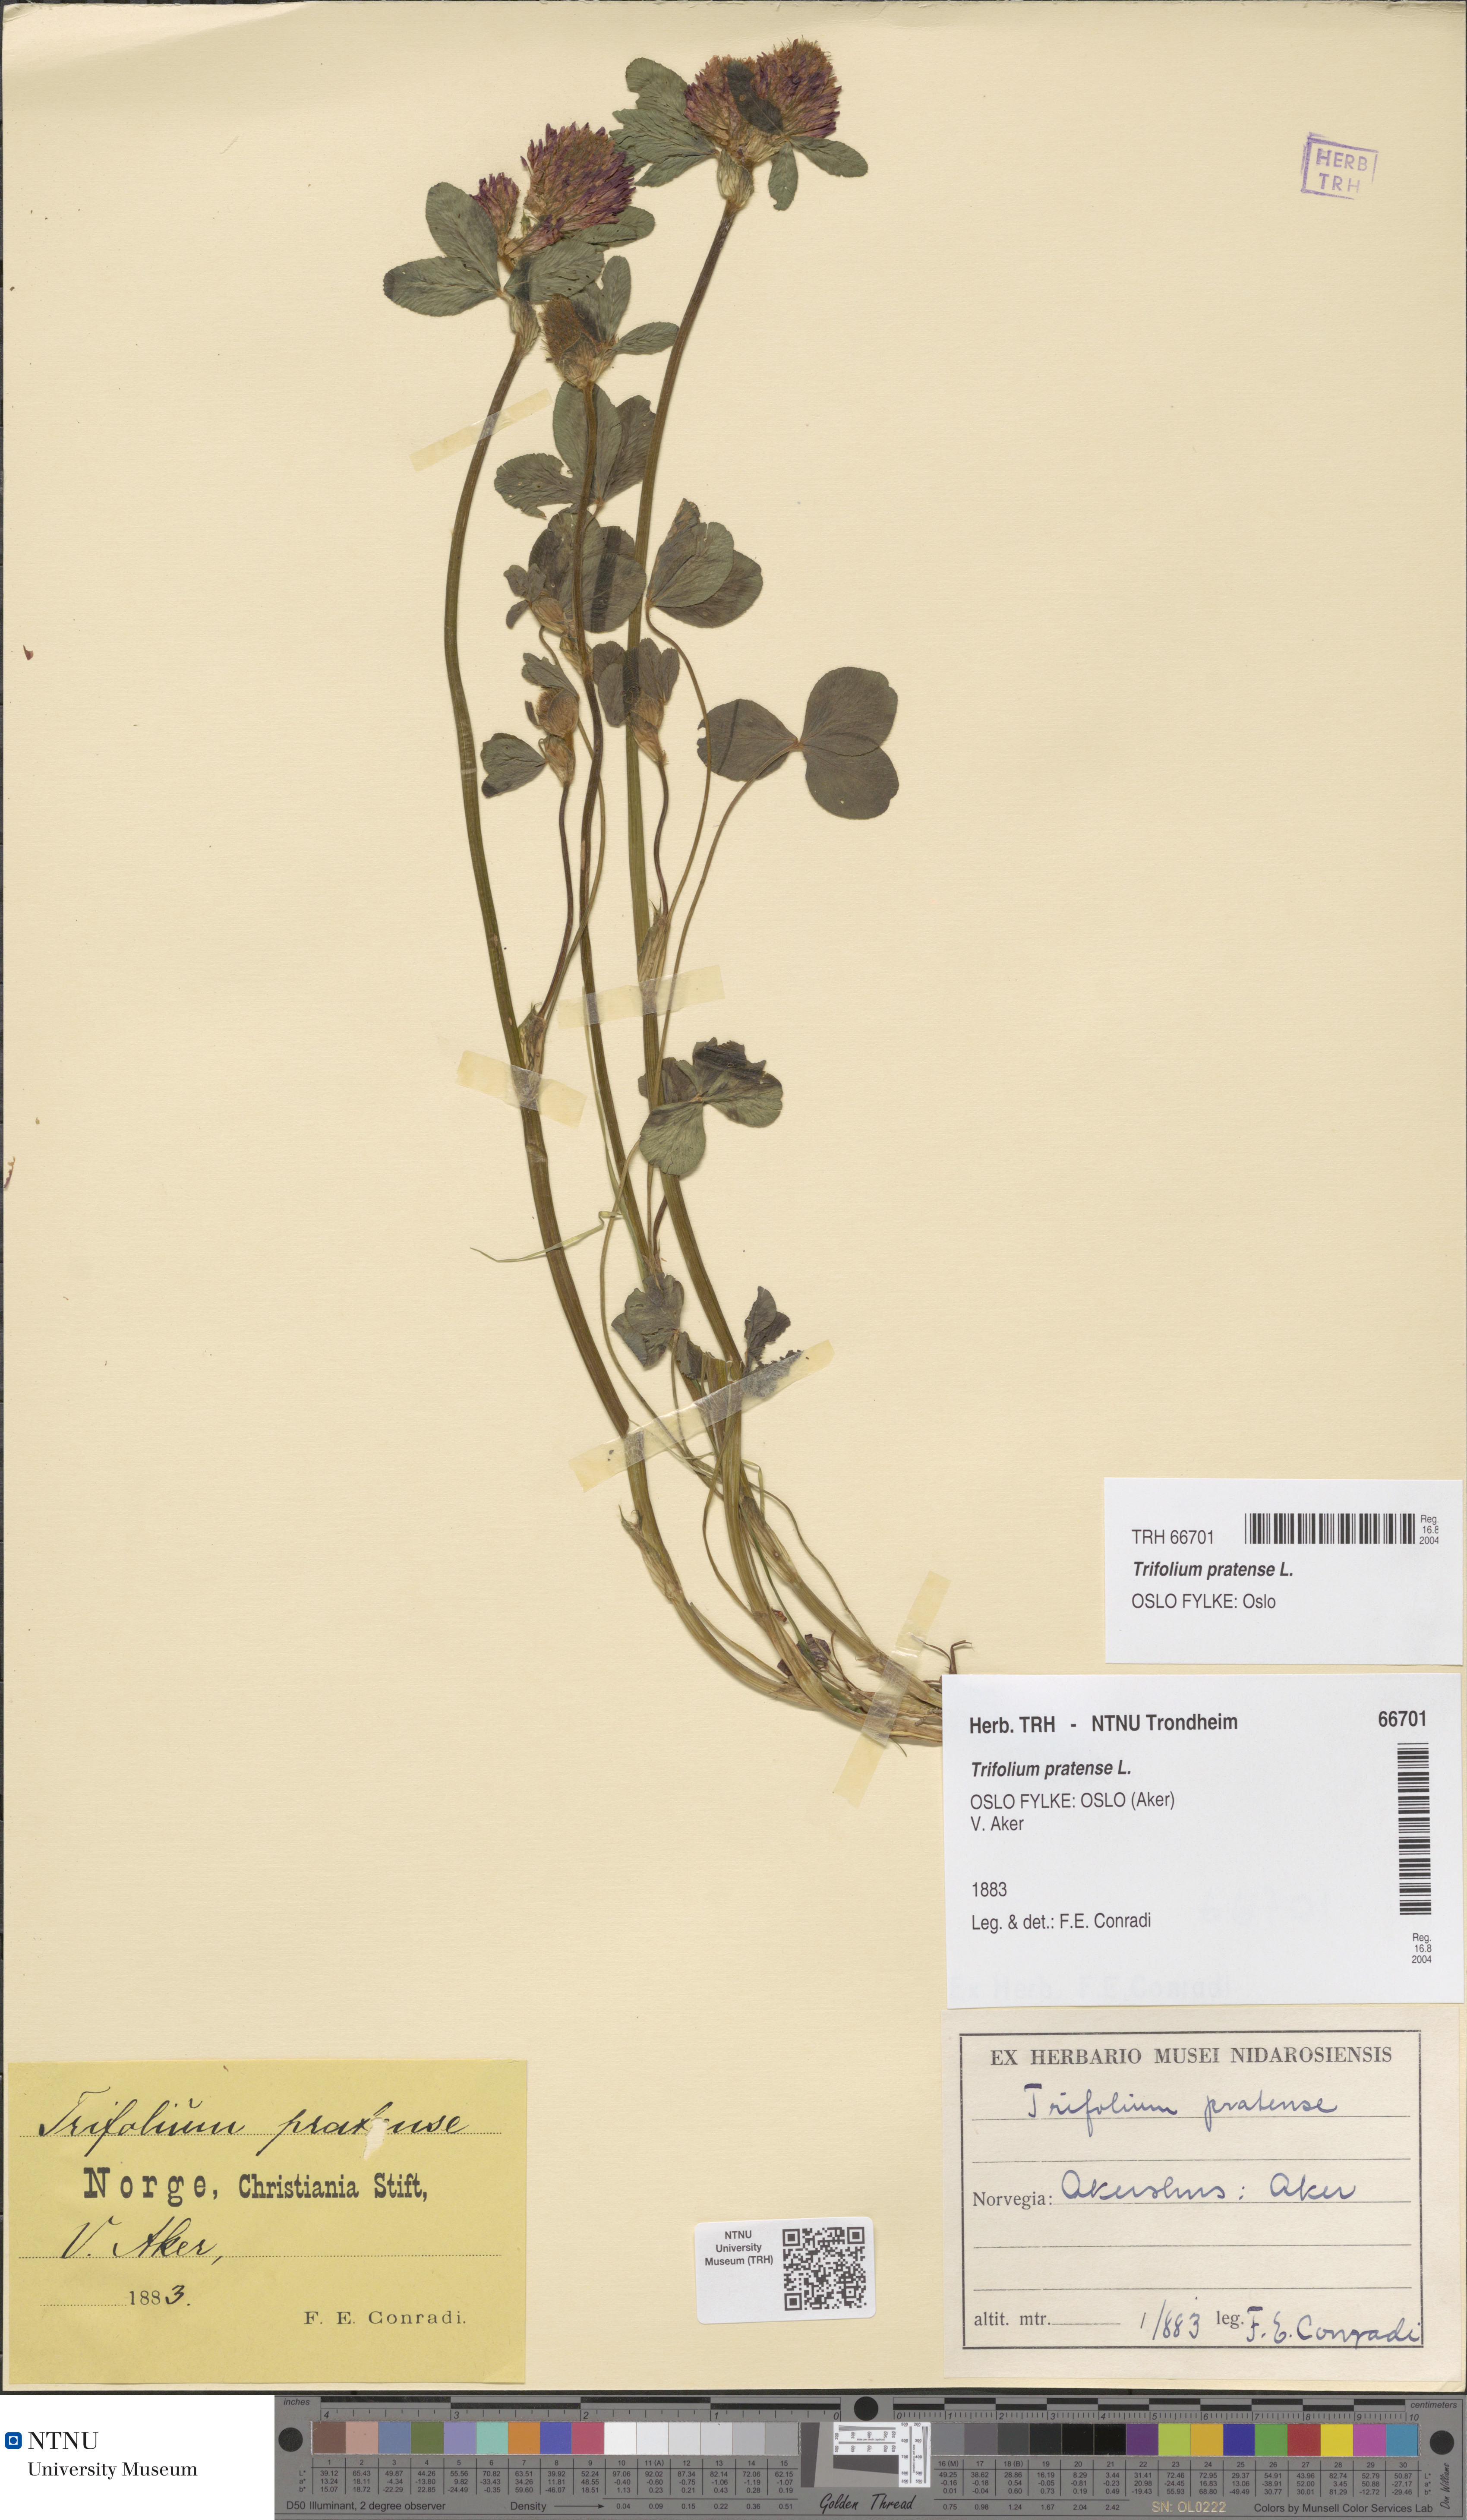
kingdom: Plantae
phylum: Tracheophyta
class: Magnoliopsida
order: Fabales
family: Fabaceae
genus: Trifolium
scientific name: Trifolium pratense
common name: Red clover
